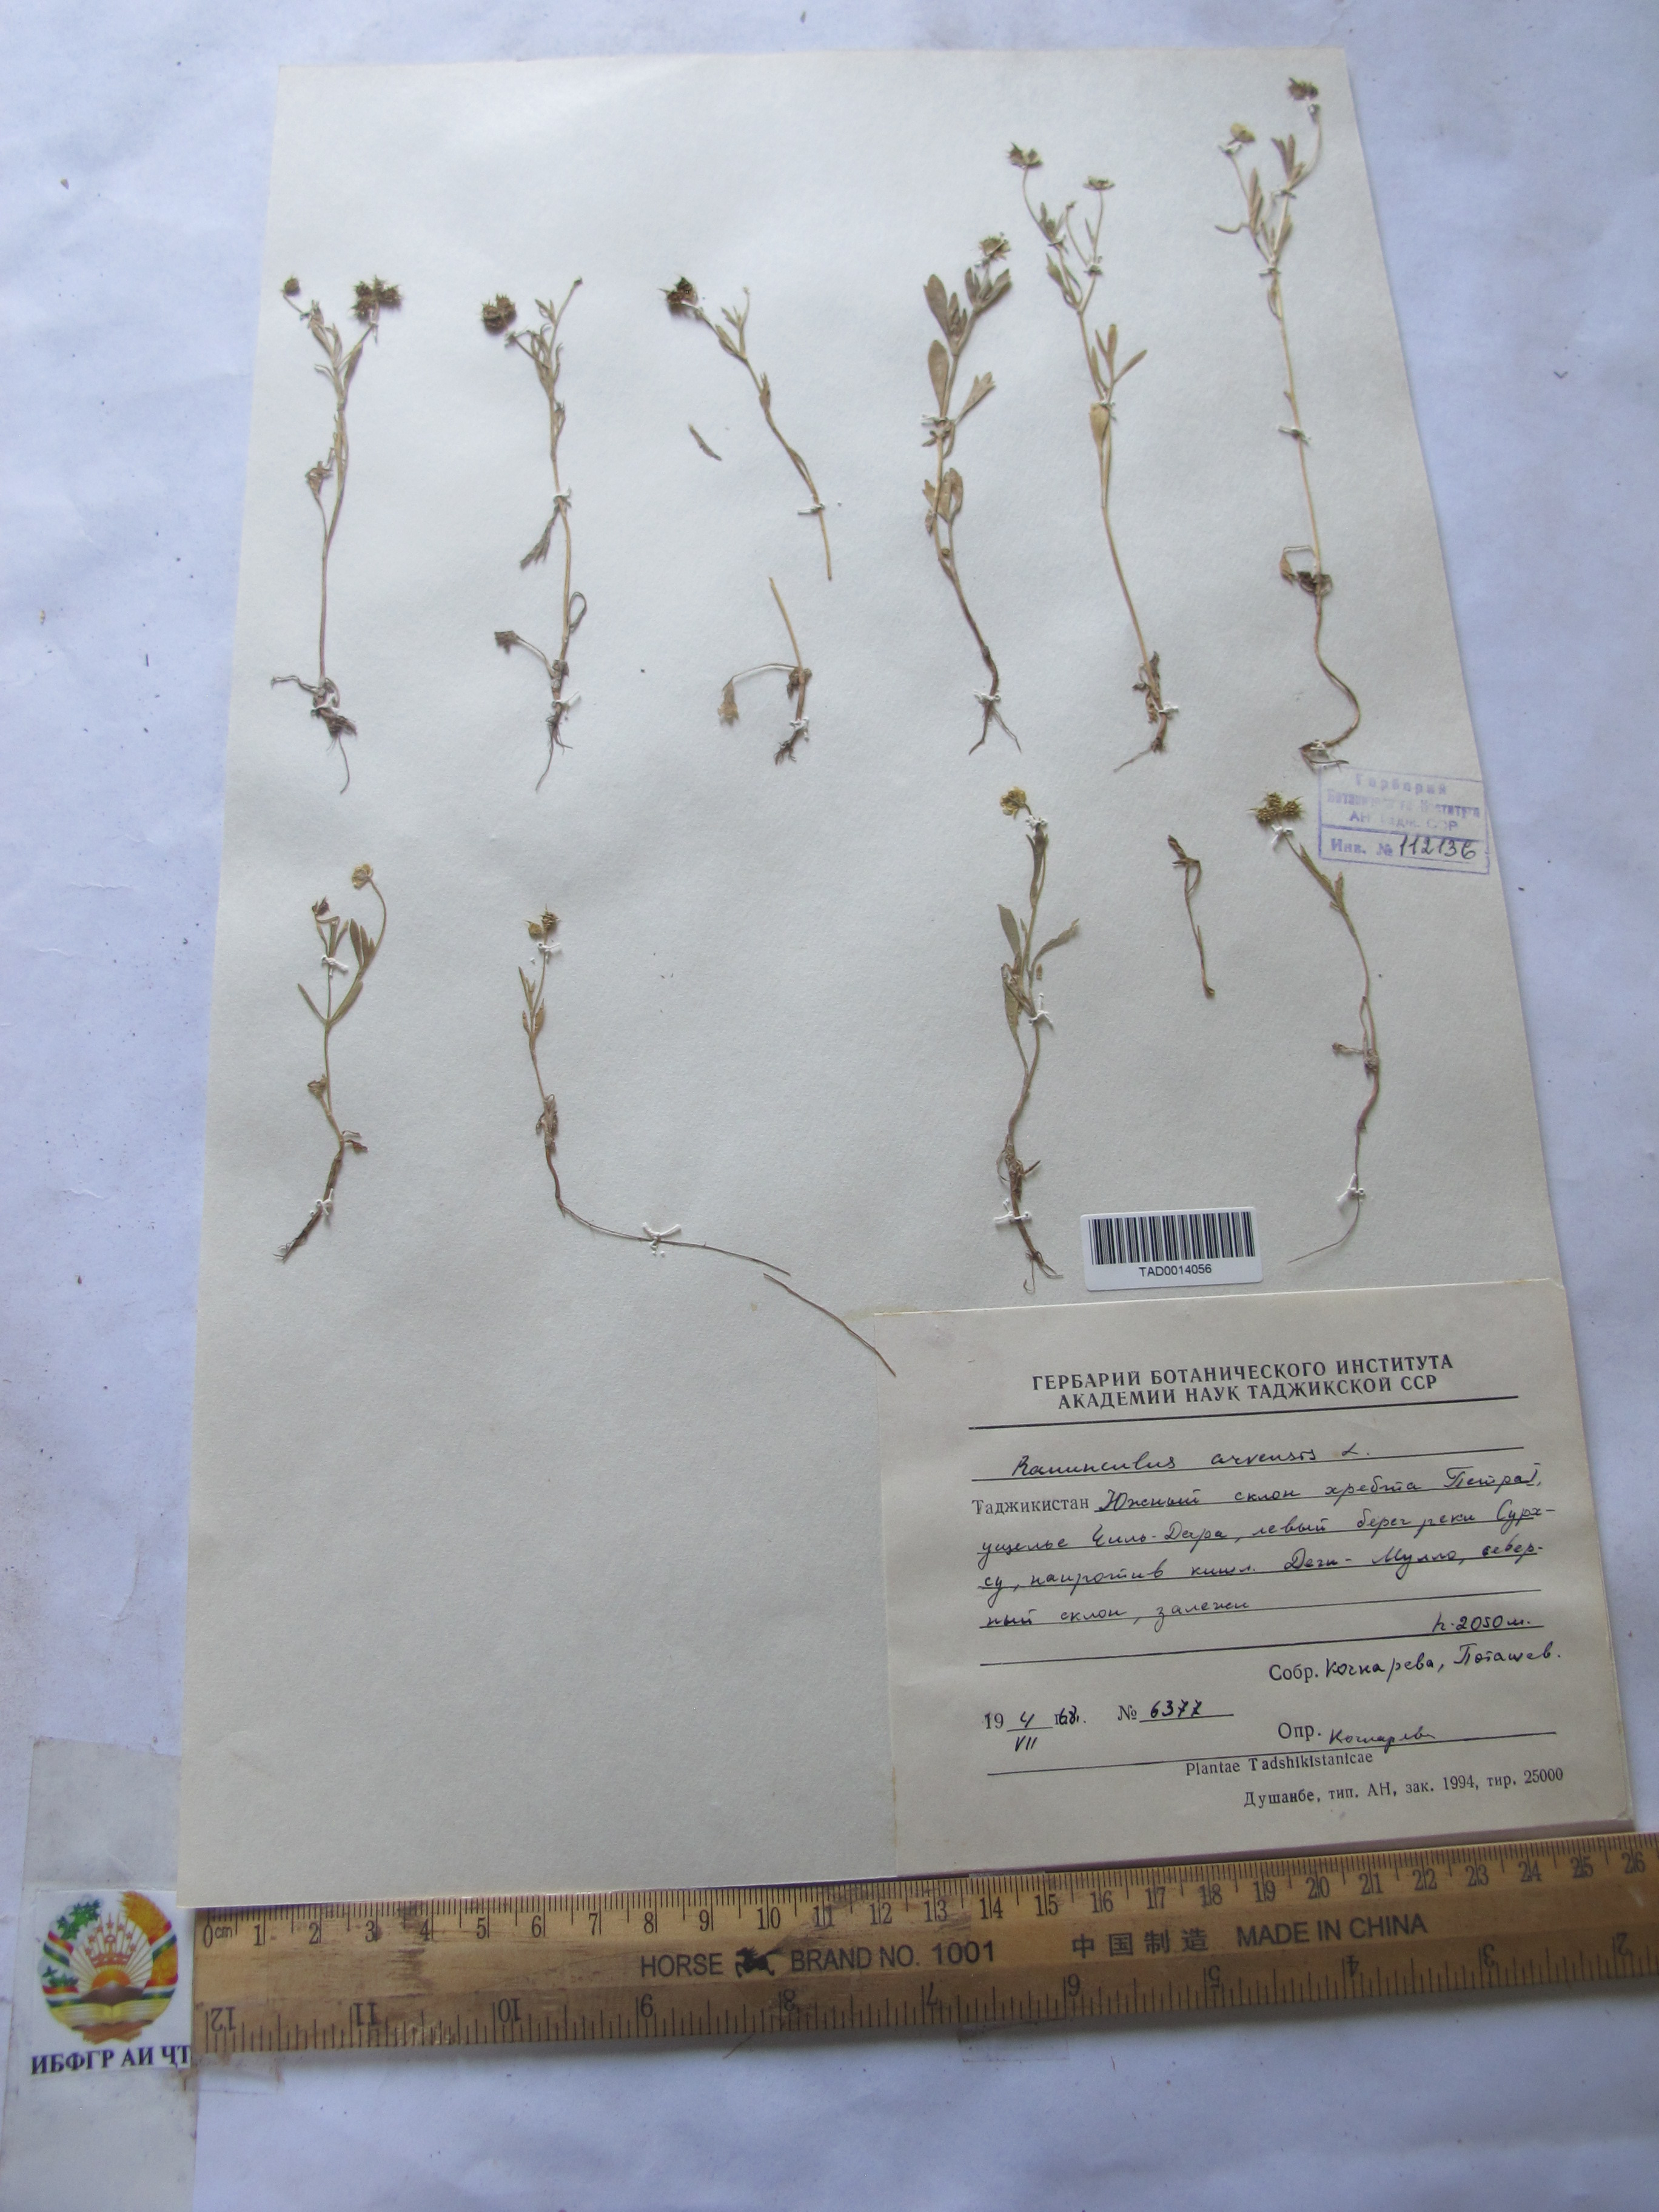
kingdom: Plantae
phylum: Tracheophyta
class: Magnoliopsida
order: Ranunculales
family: Ranunculaceae
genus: Ranunculus
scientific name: Ranunculus arvensis
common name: Corn buttercup
